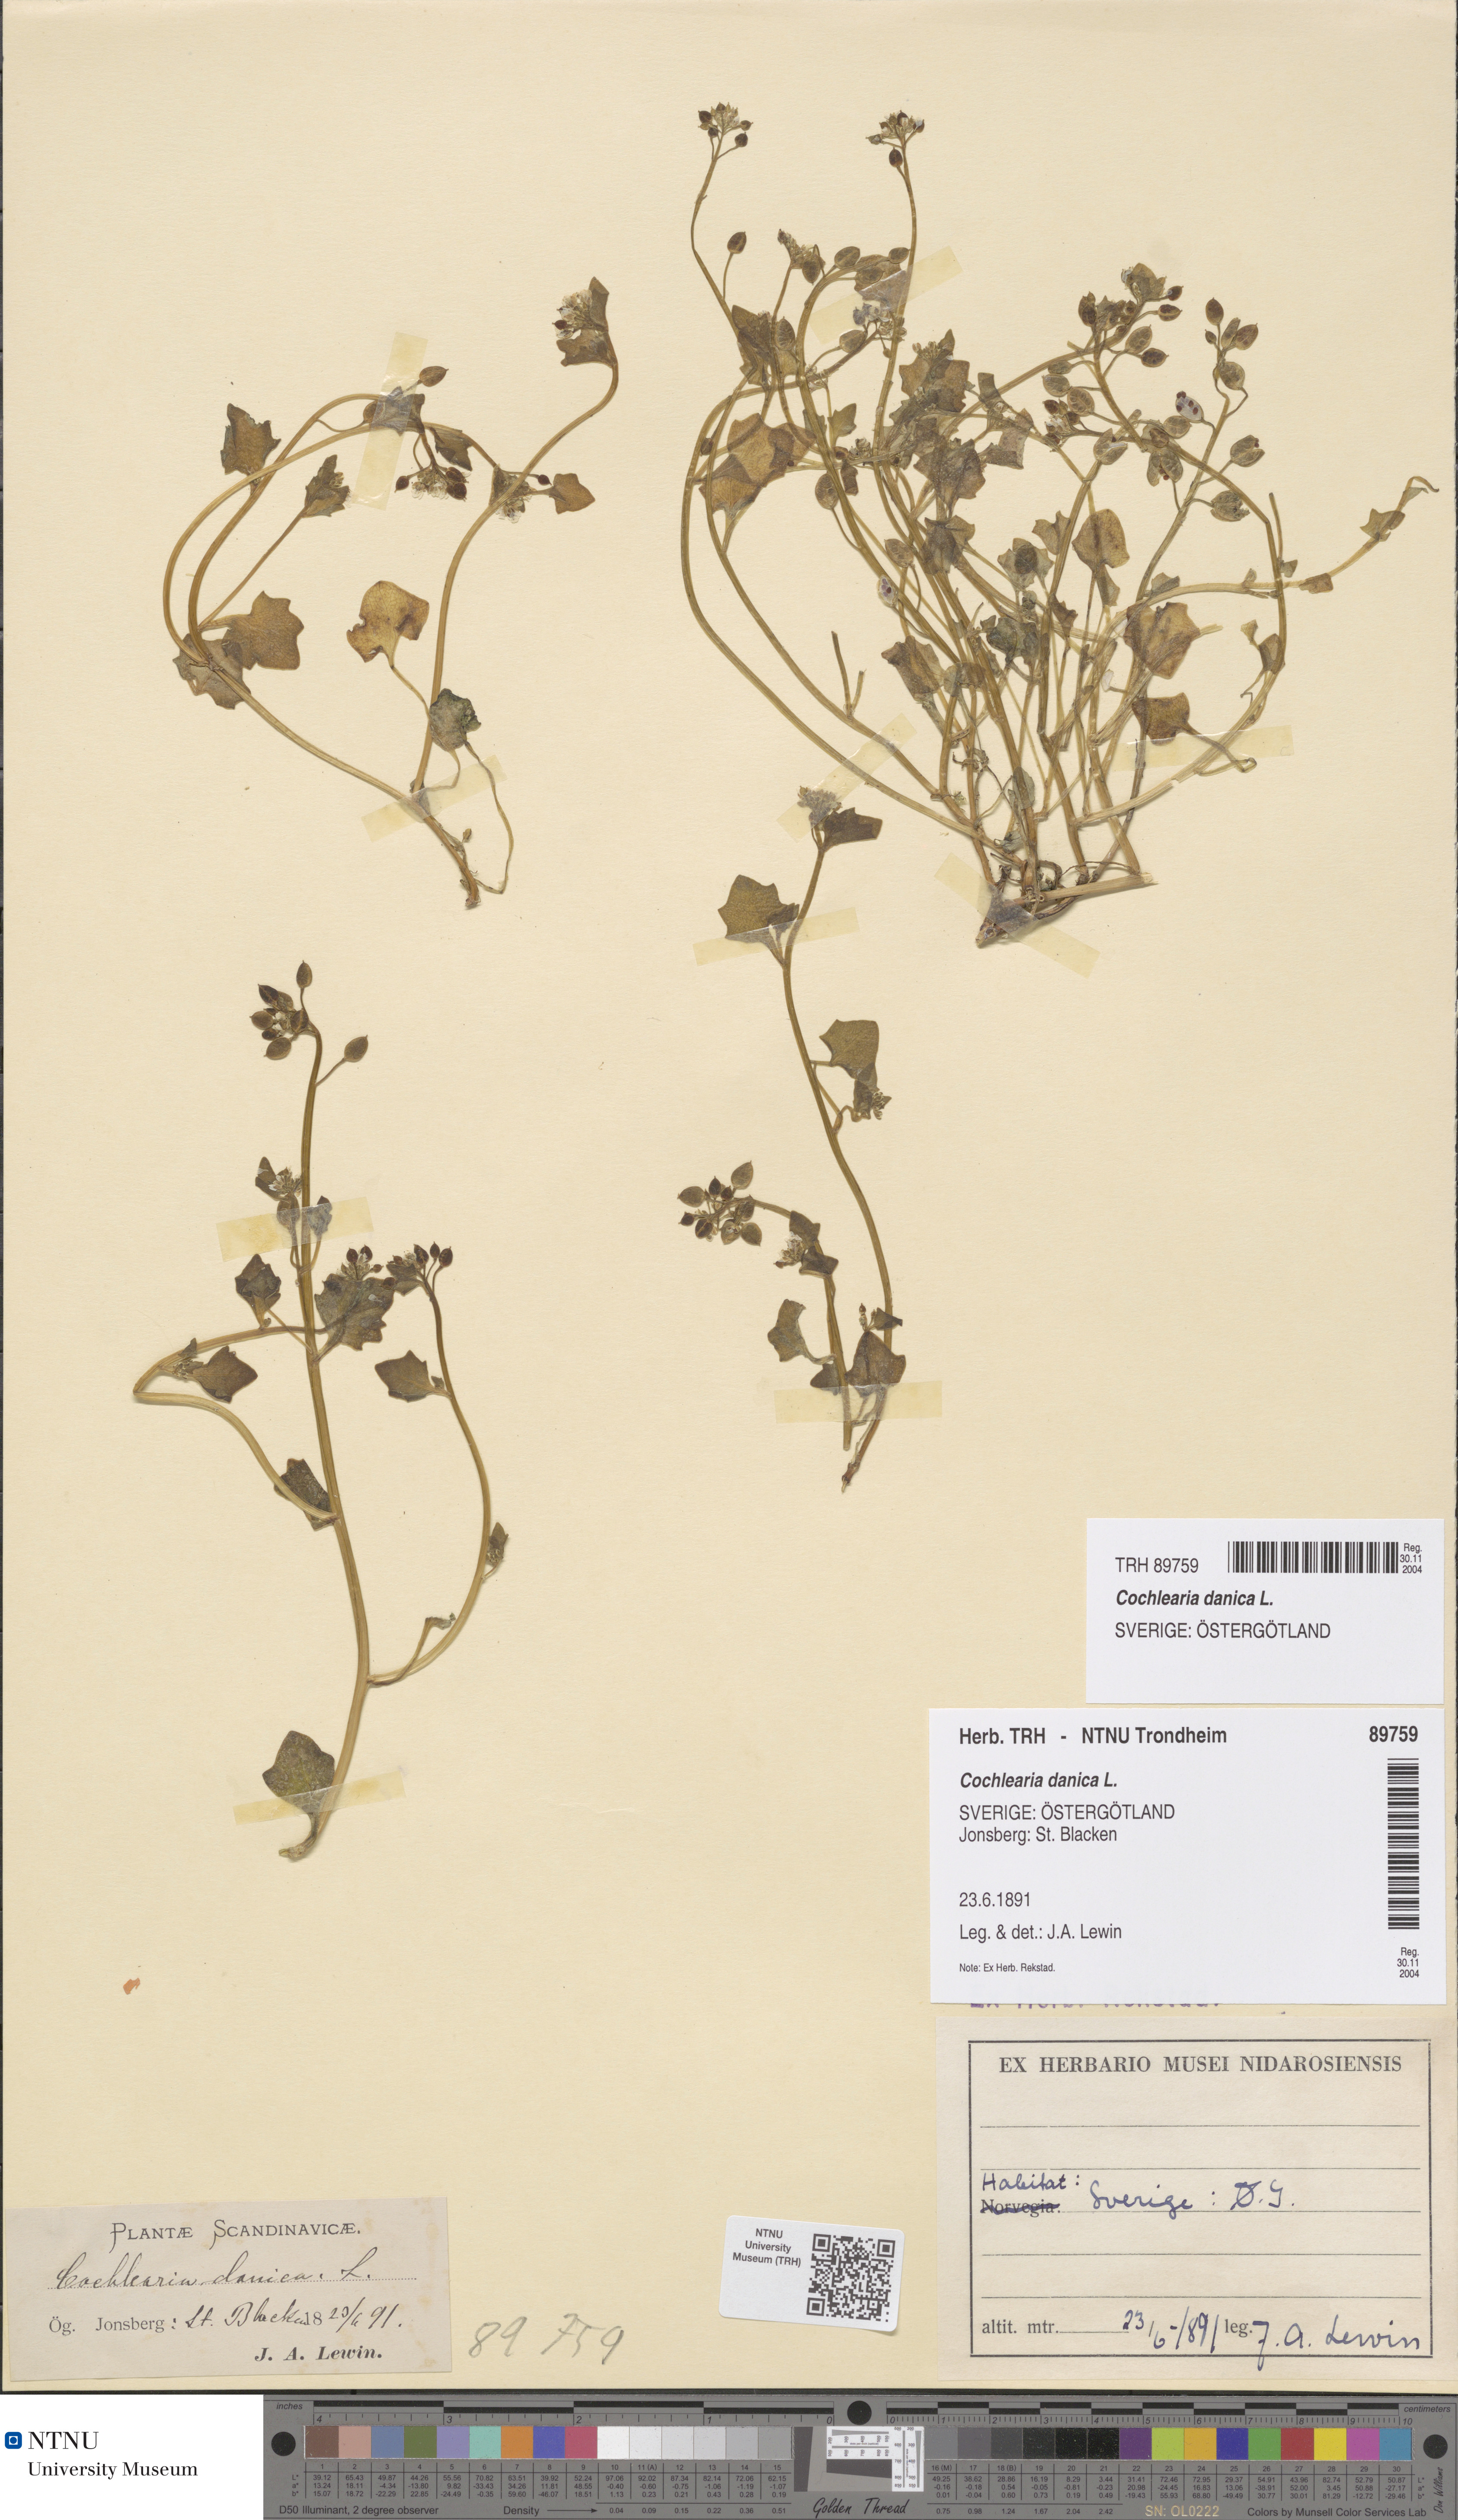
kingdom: Plantae
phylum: Tracheophyta
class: Magnoliopsida
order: Brassicales
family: Brassicaceae
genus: Cochlearia
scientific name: Cochlearia danica
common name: Early scurvygrass
